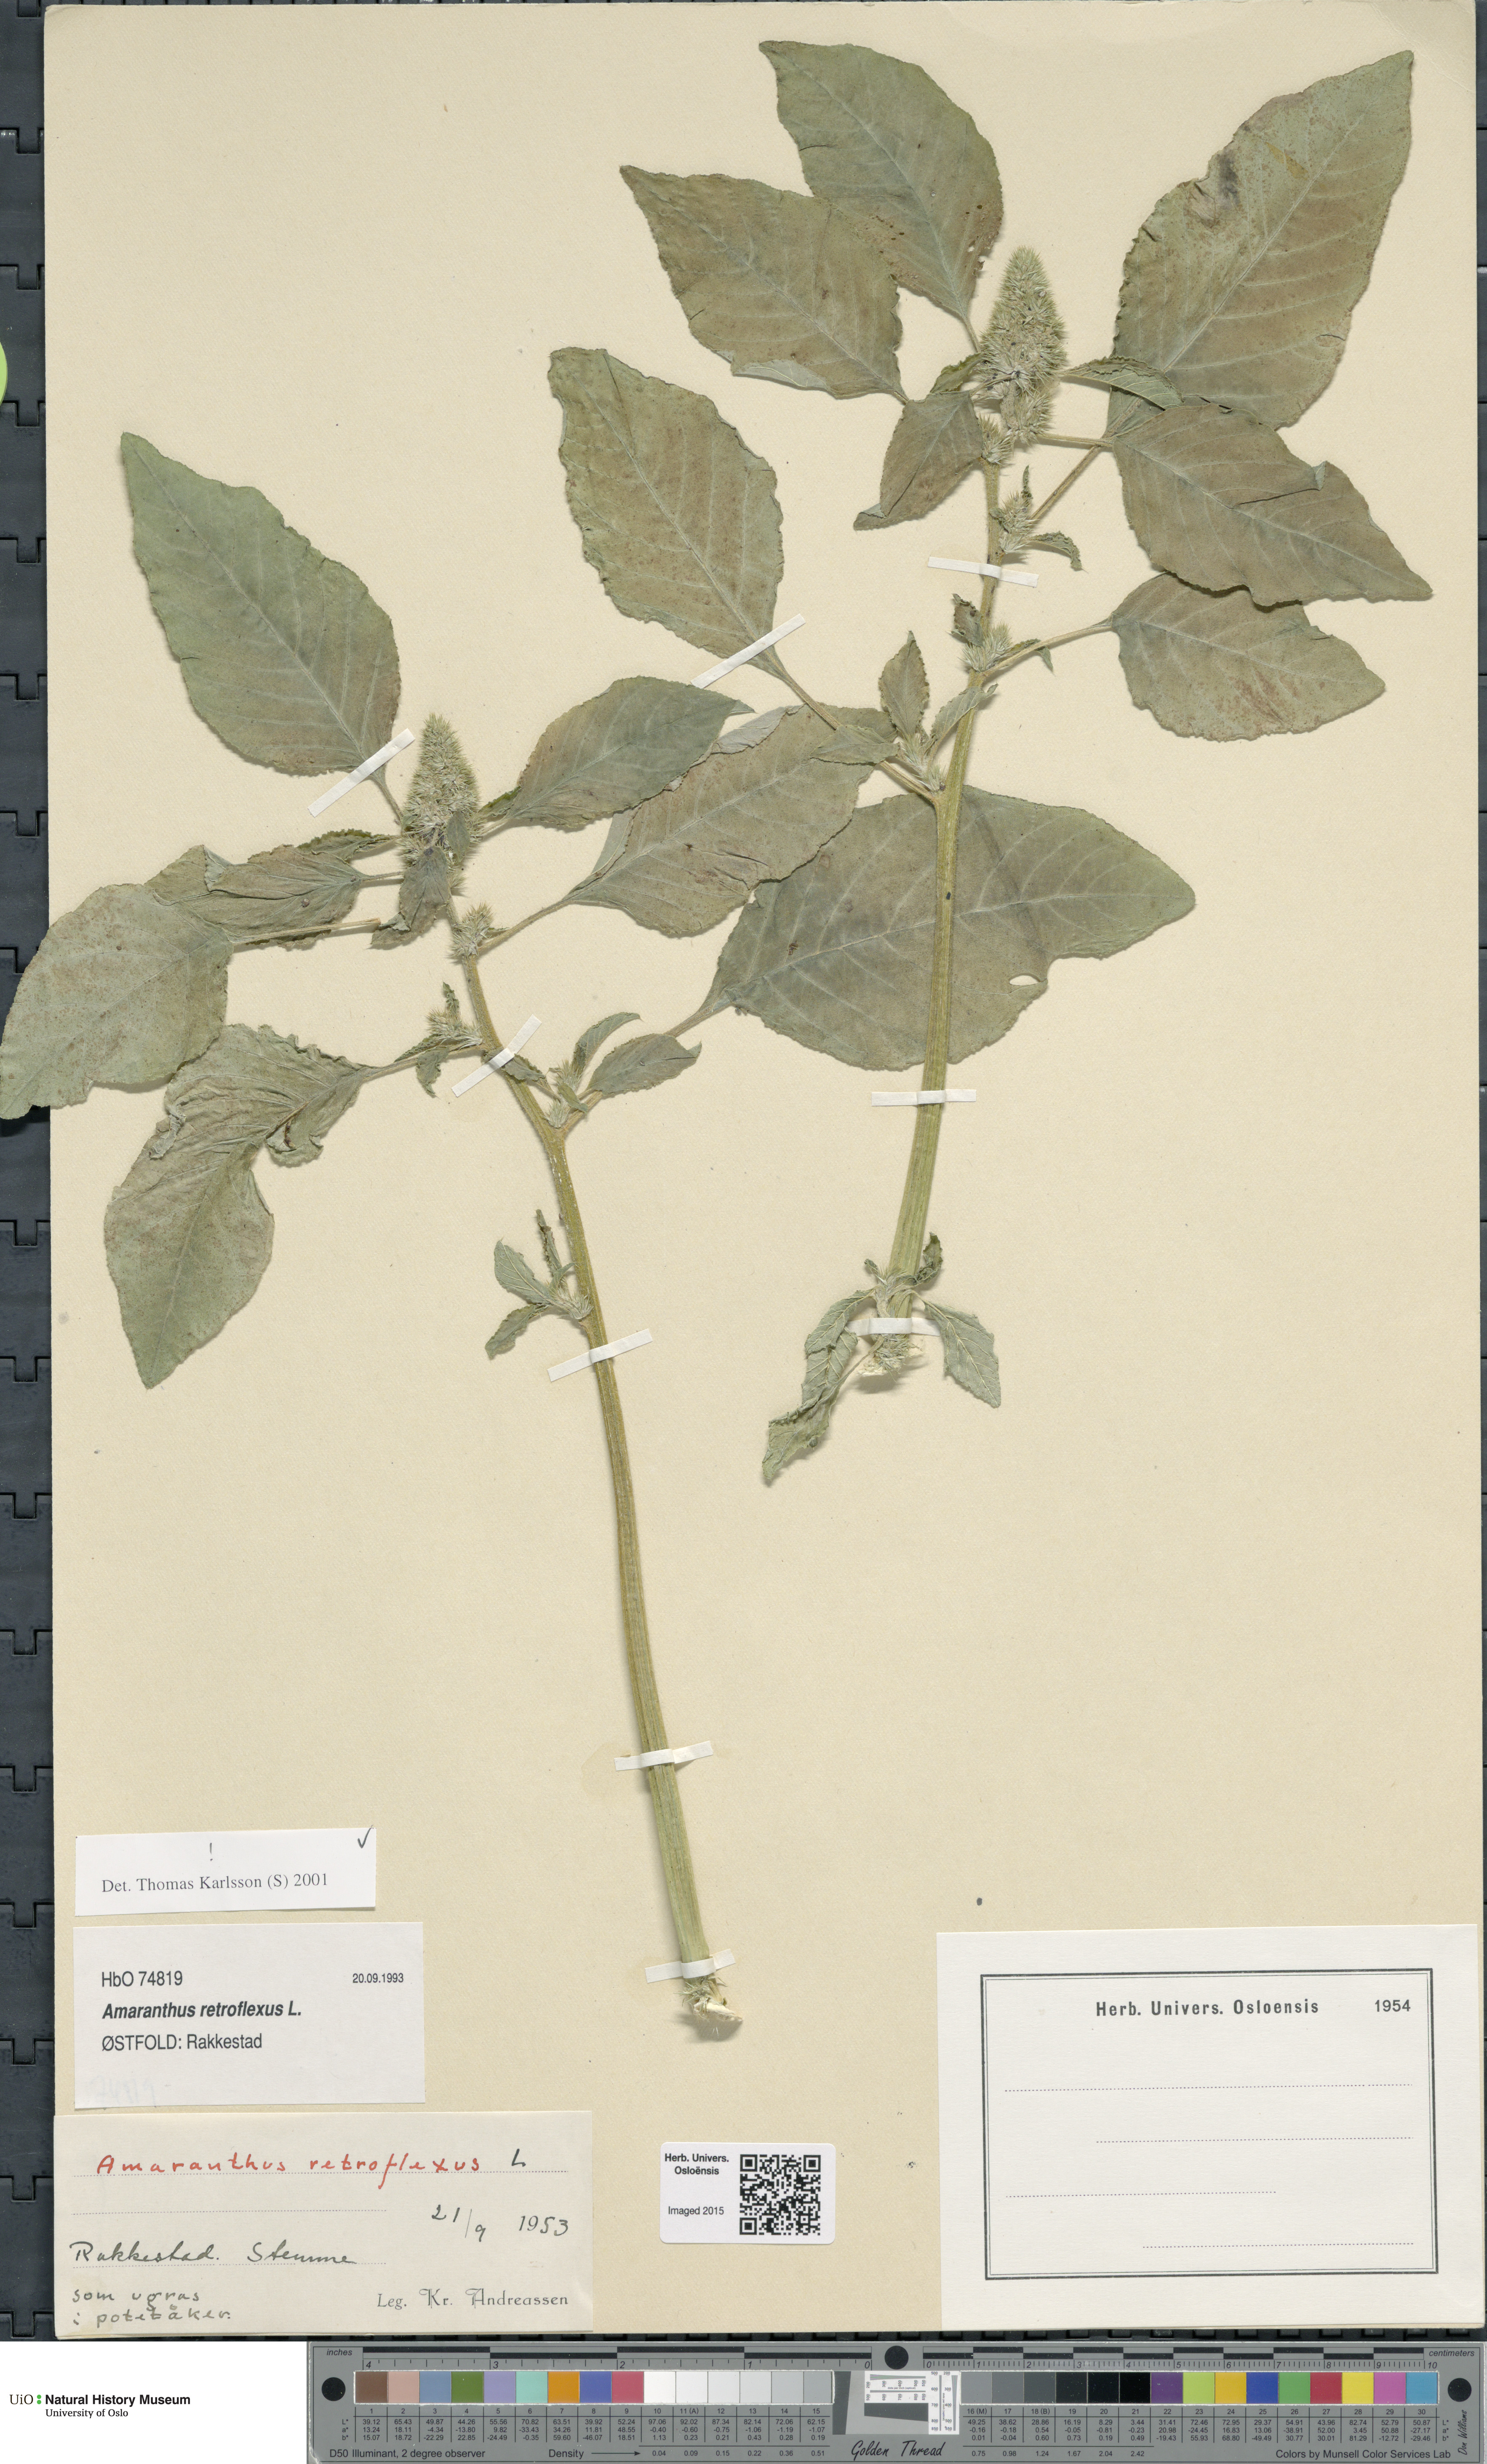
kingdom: Plantae
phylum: Tracheophyta
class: Magnoliopsida
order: Caryophyllales
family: Amaranthaceae
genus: Amaranthus
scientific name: Amaranthus retroflexus
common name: Redroot amaranth
